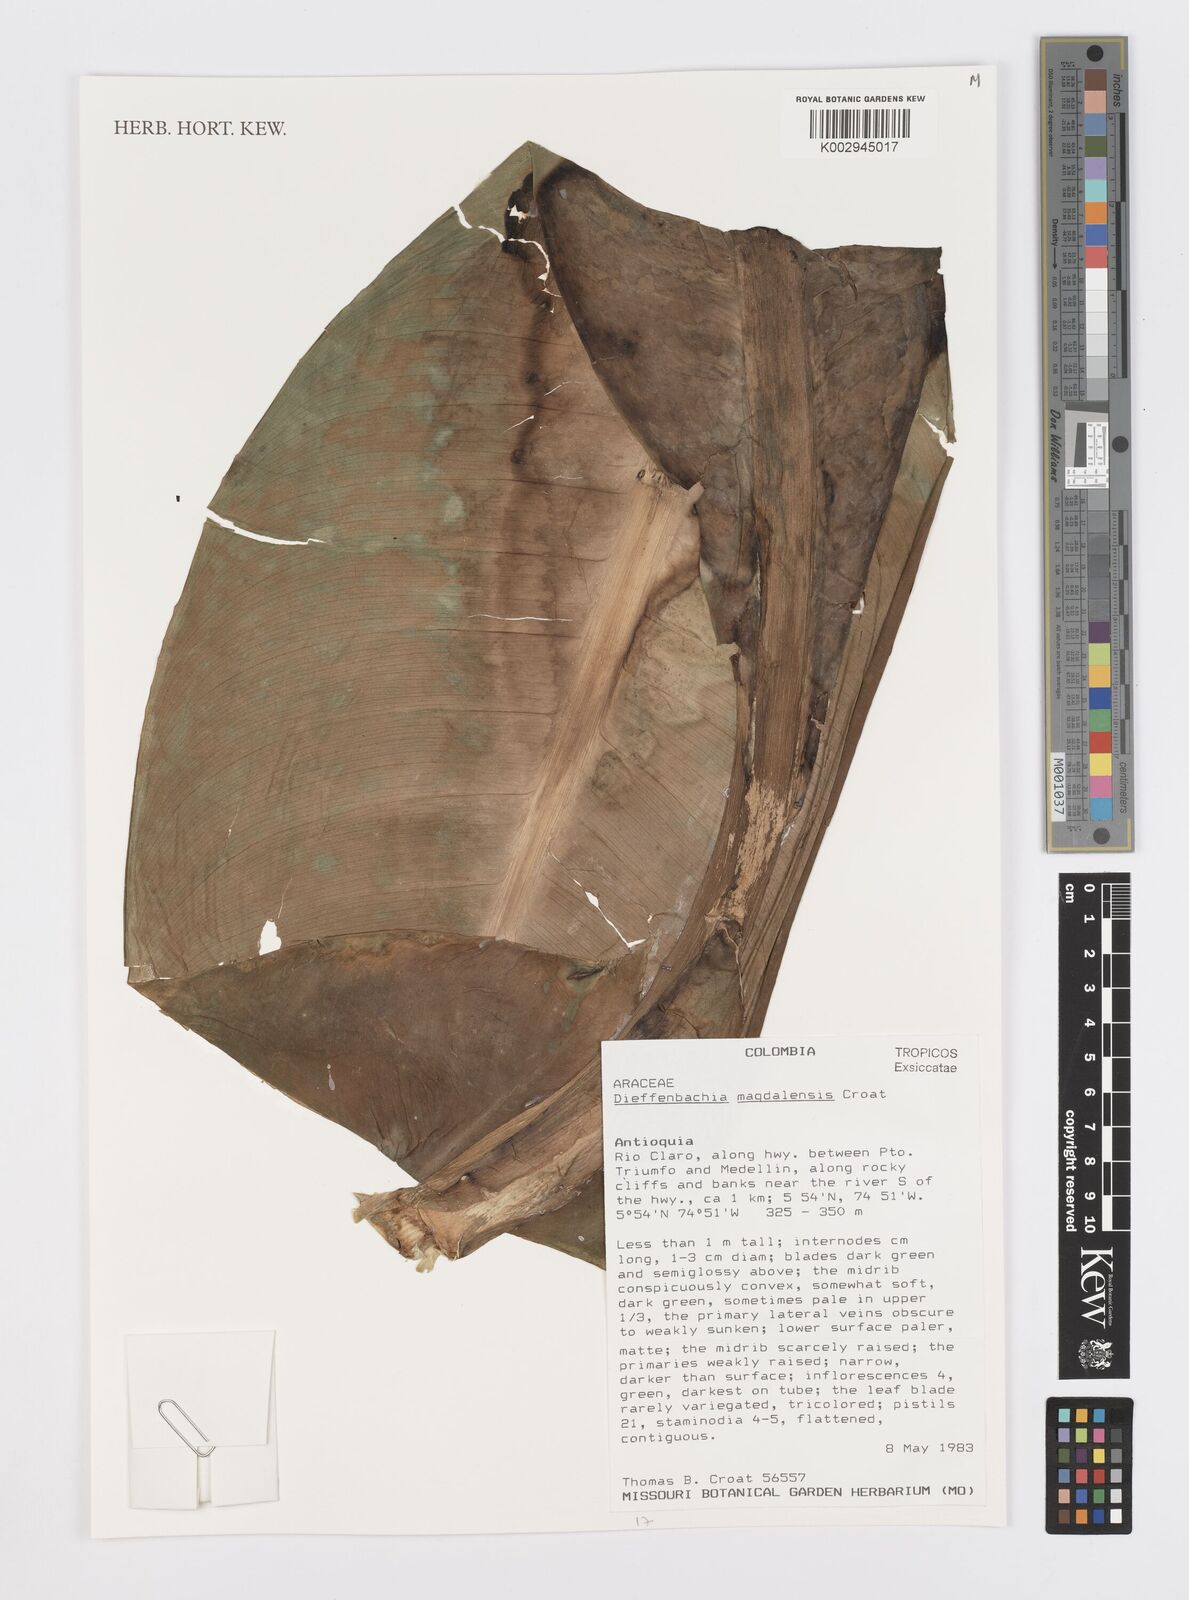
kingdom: Plantae
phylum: Tracheophyta
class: Liliopsida
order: Alismatales
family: Araceae
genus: Dieffenbachia
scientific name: Dieffenbachia
